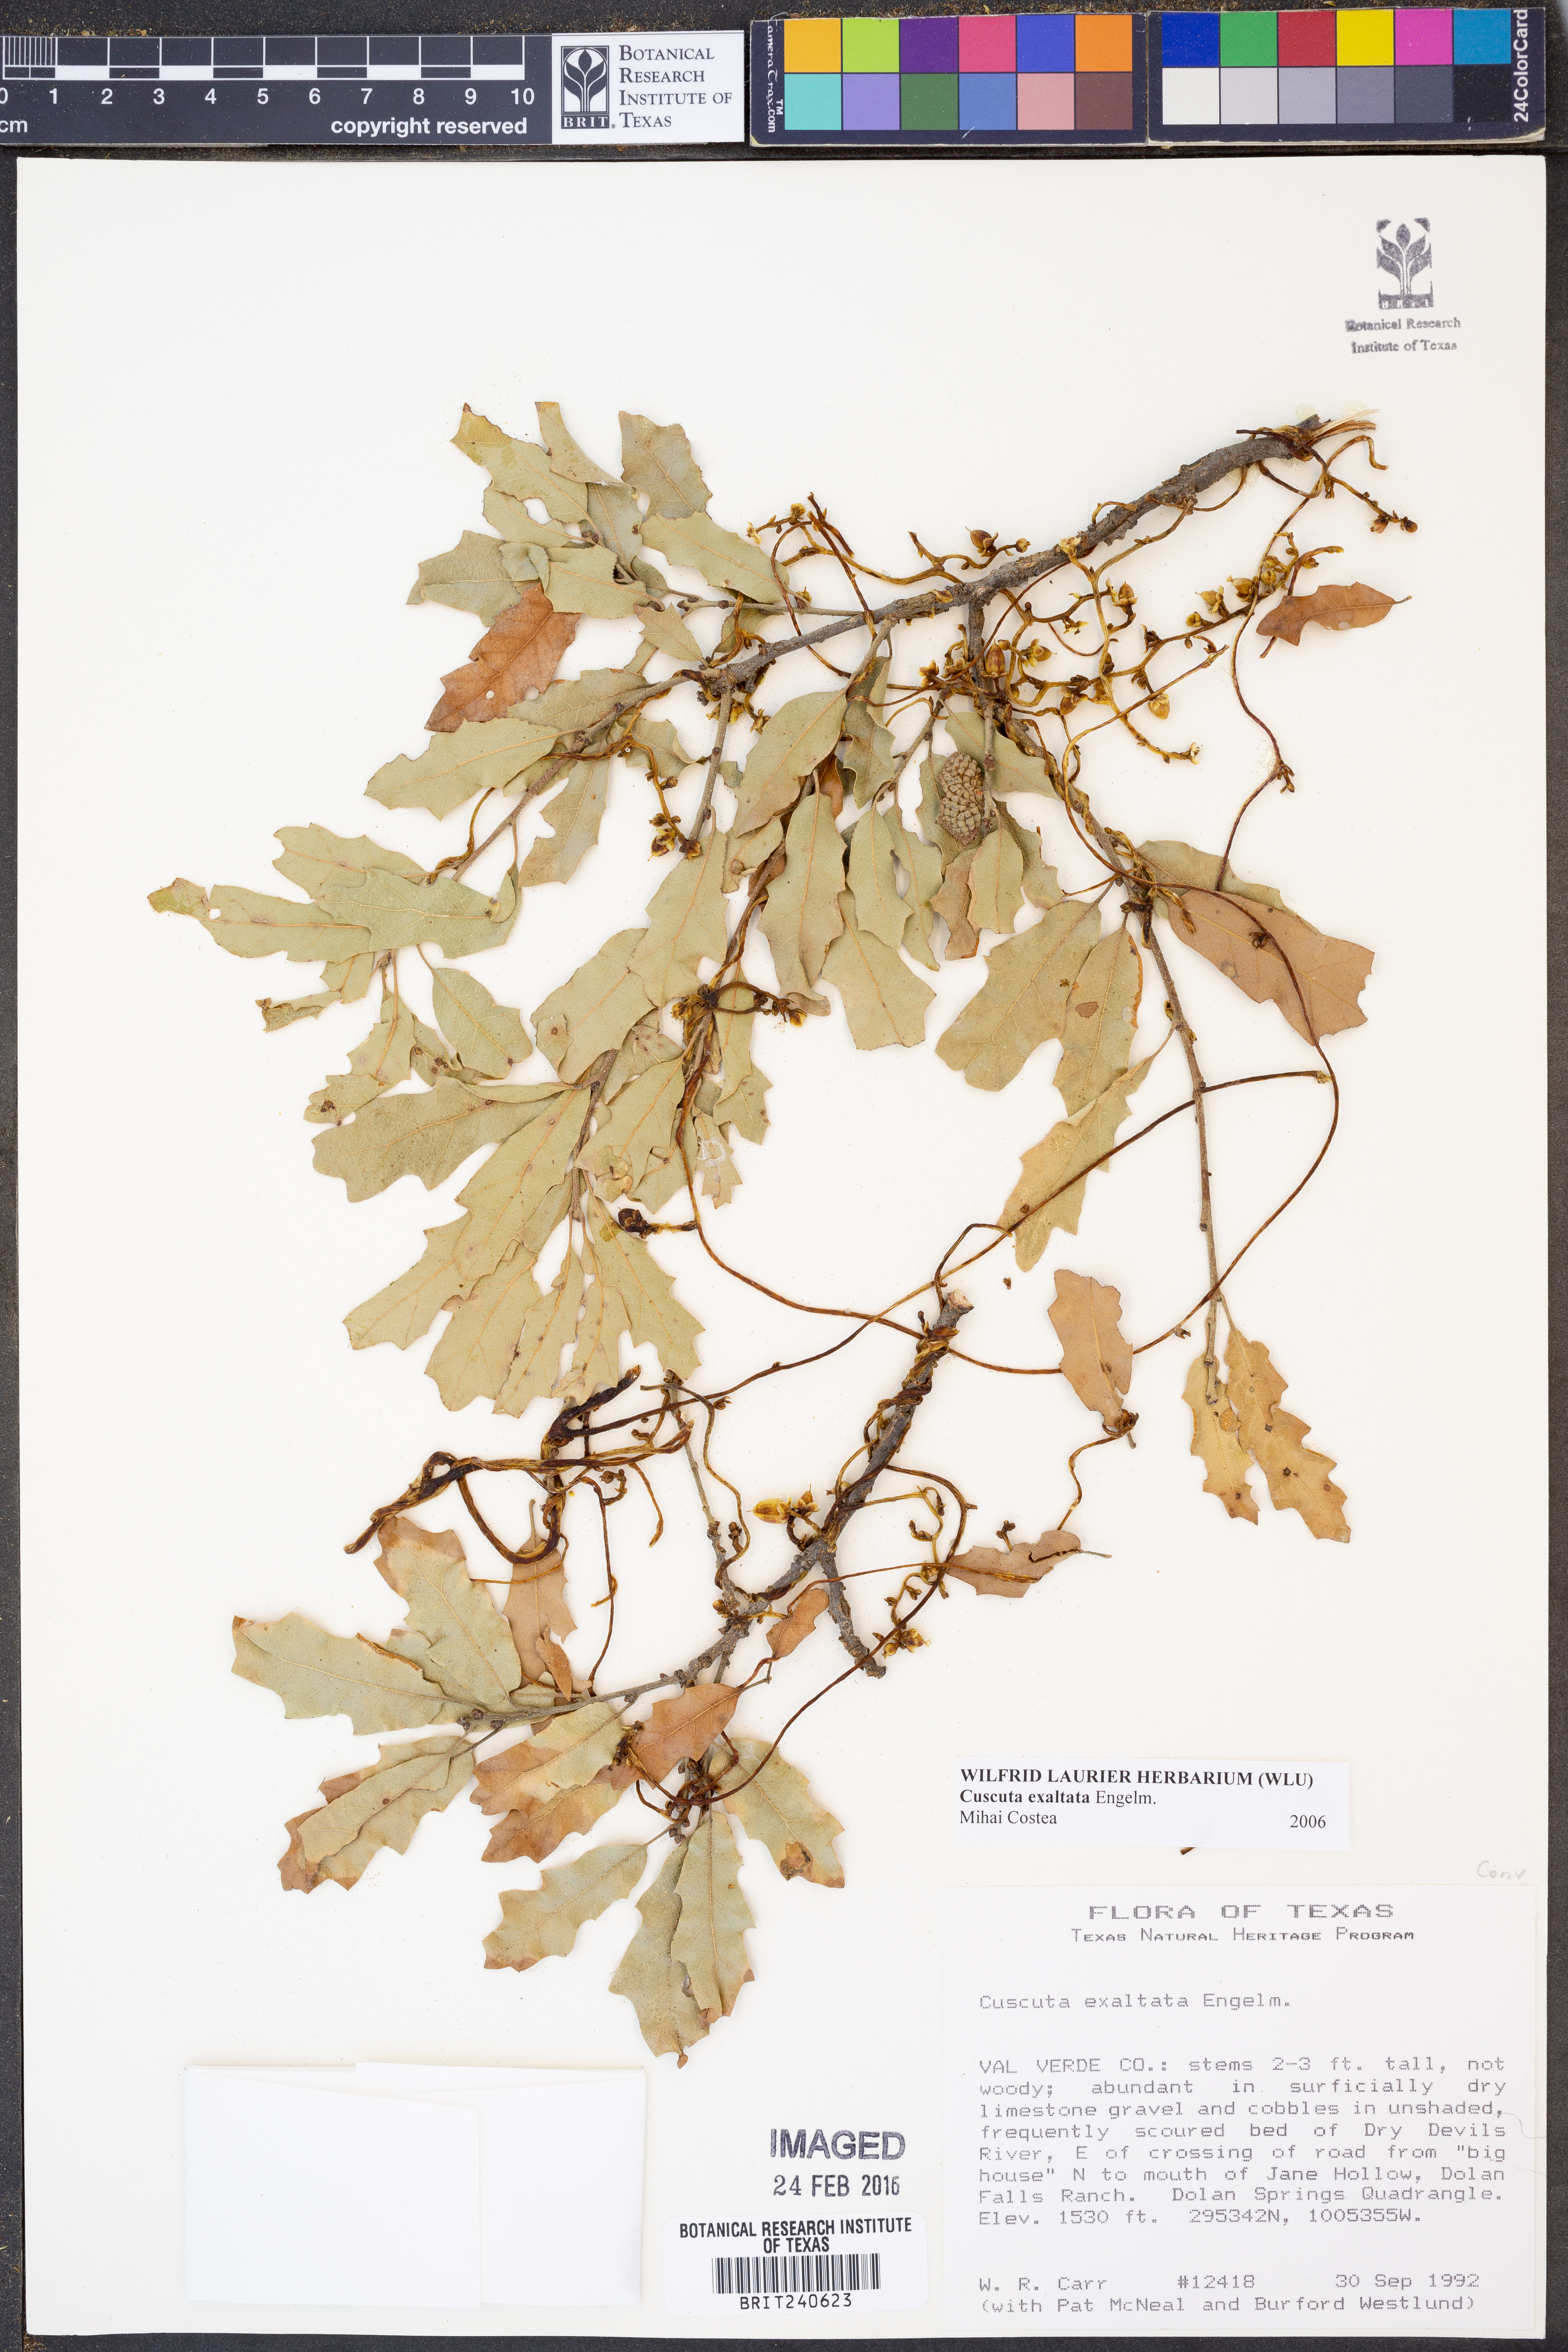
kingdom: Plantae
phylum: Tracheophyta
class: Magnoliopsida
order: Solanales
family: Convolvulaceae
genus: Cuscuta
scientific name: Cuscuta exaltata
